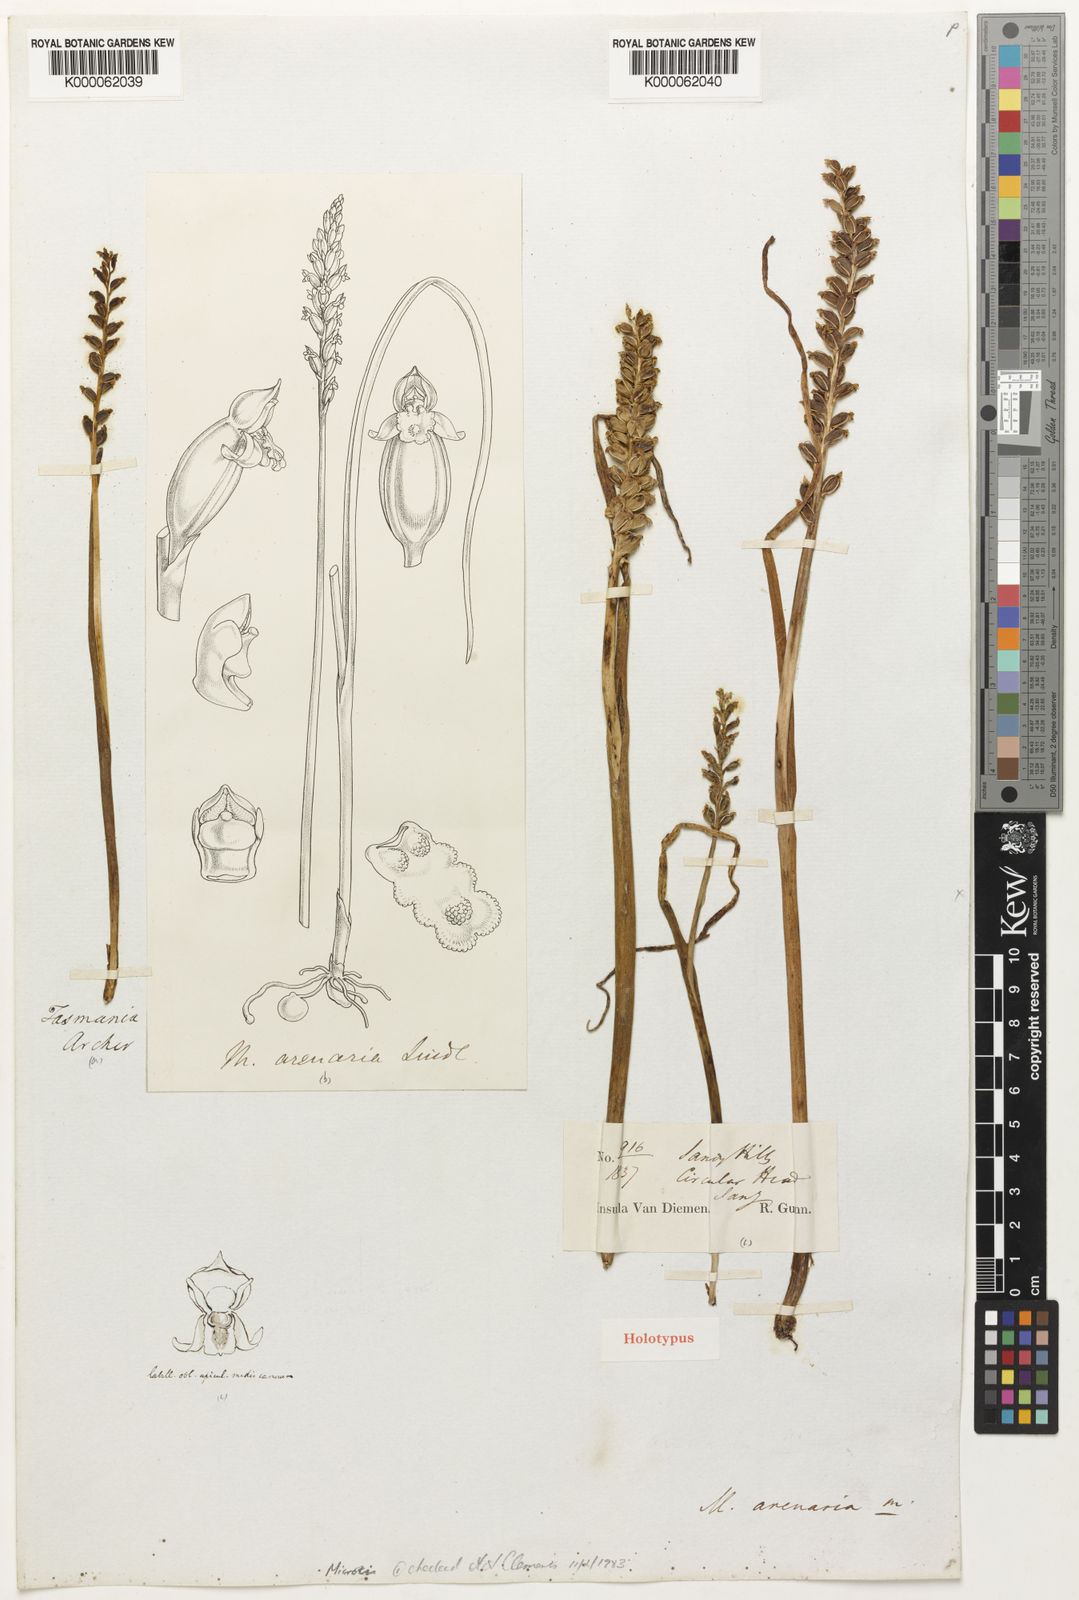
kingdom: Plantae
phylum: Tracheophyta
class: Liliopsida
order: Asparagales
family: Orchidaceae
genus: Microtis
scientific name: Microtis arenaria
